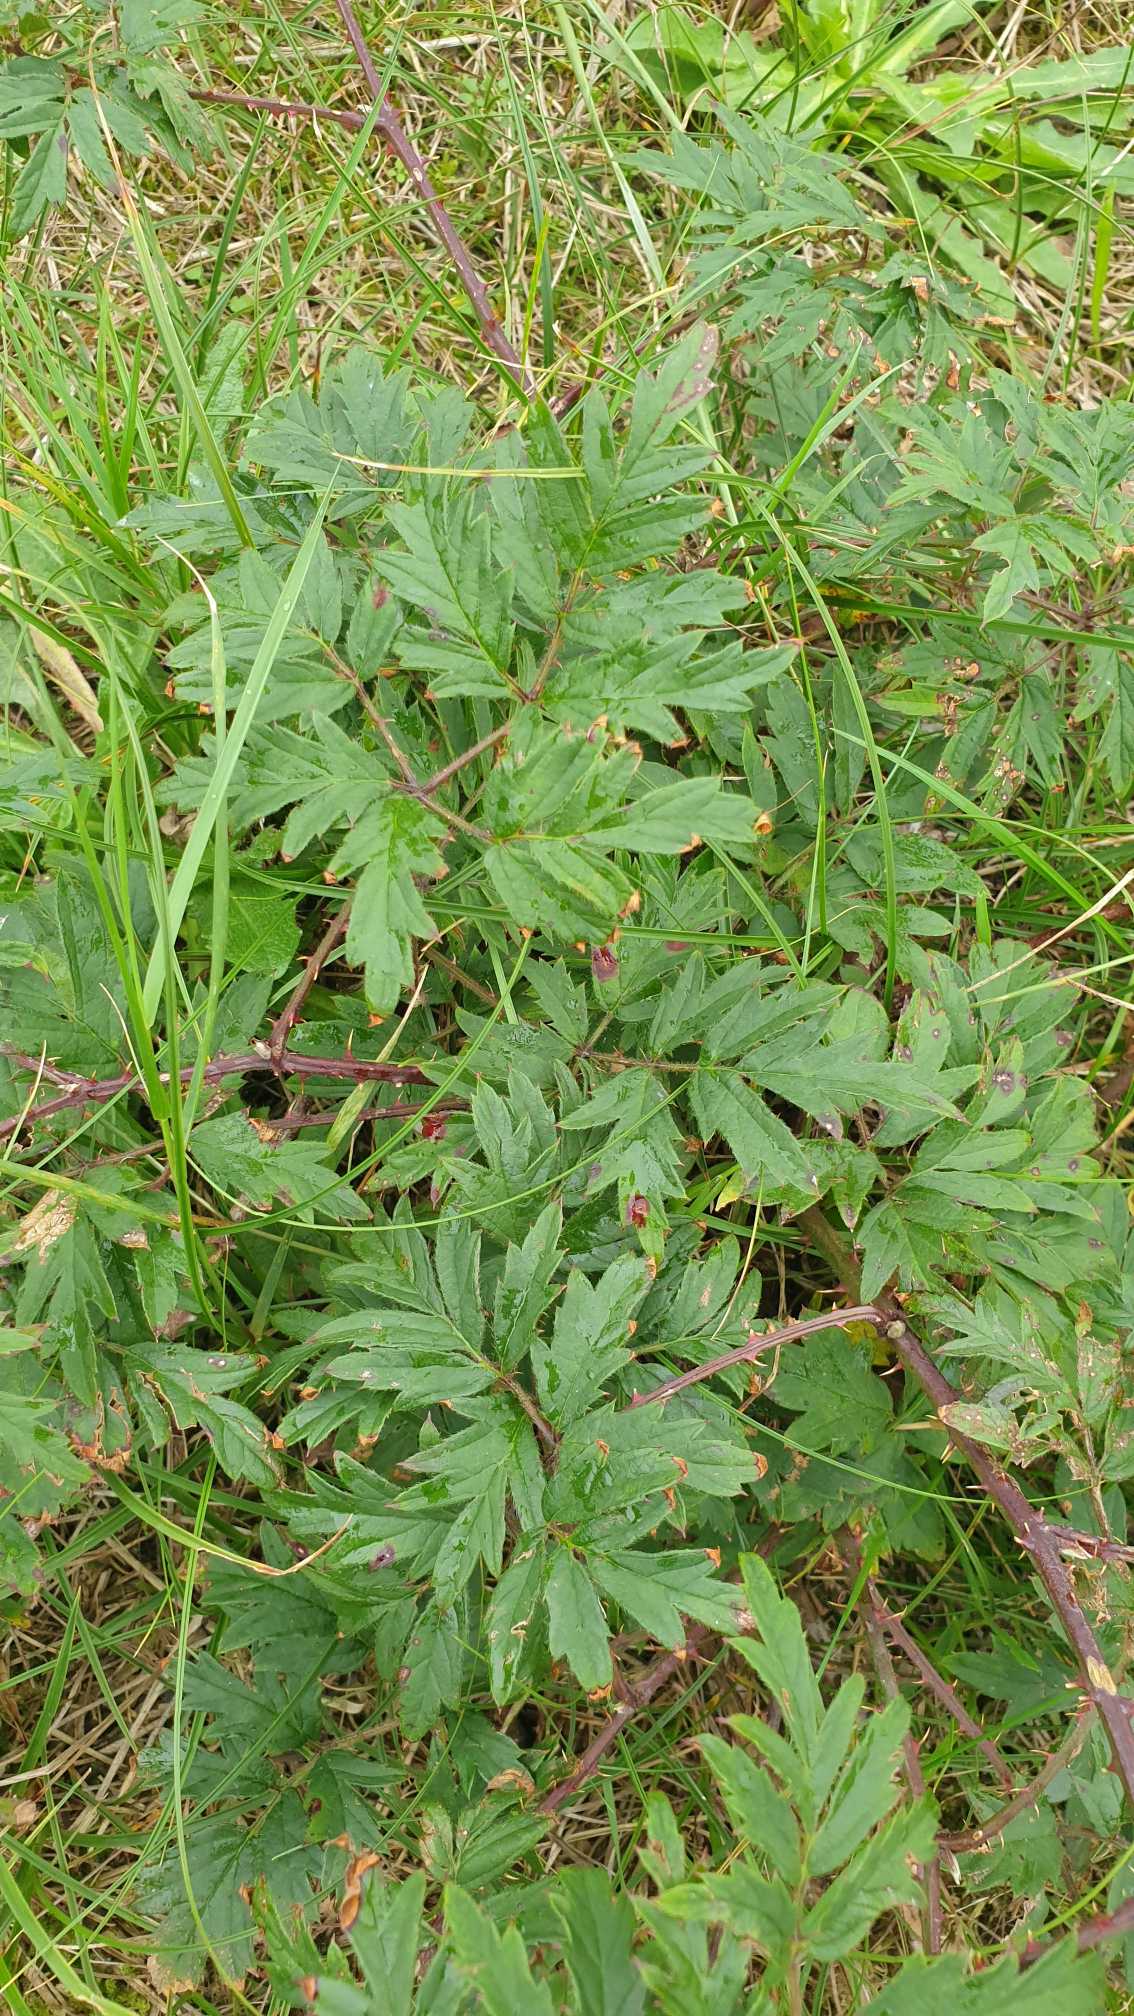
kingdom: Plantae
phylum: Tracheophyta
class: Magnoliopsida
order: Rosales
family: Rosaceae
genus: Rubus
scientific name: Rubus laciniatus
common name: Fliget brombær
